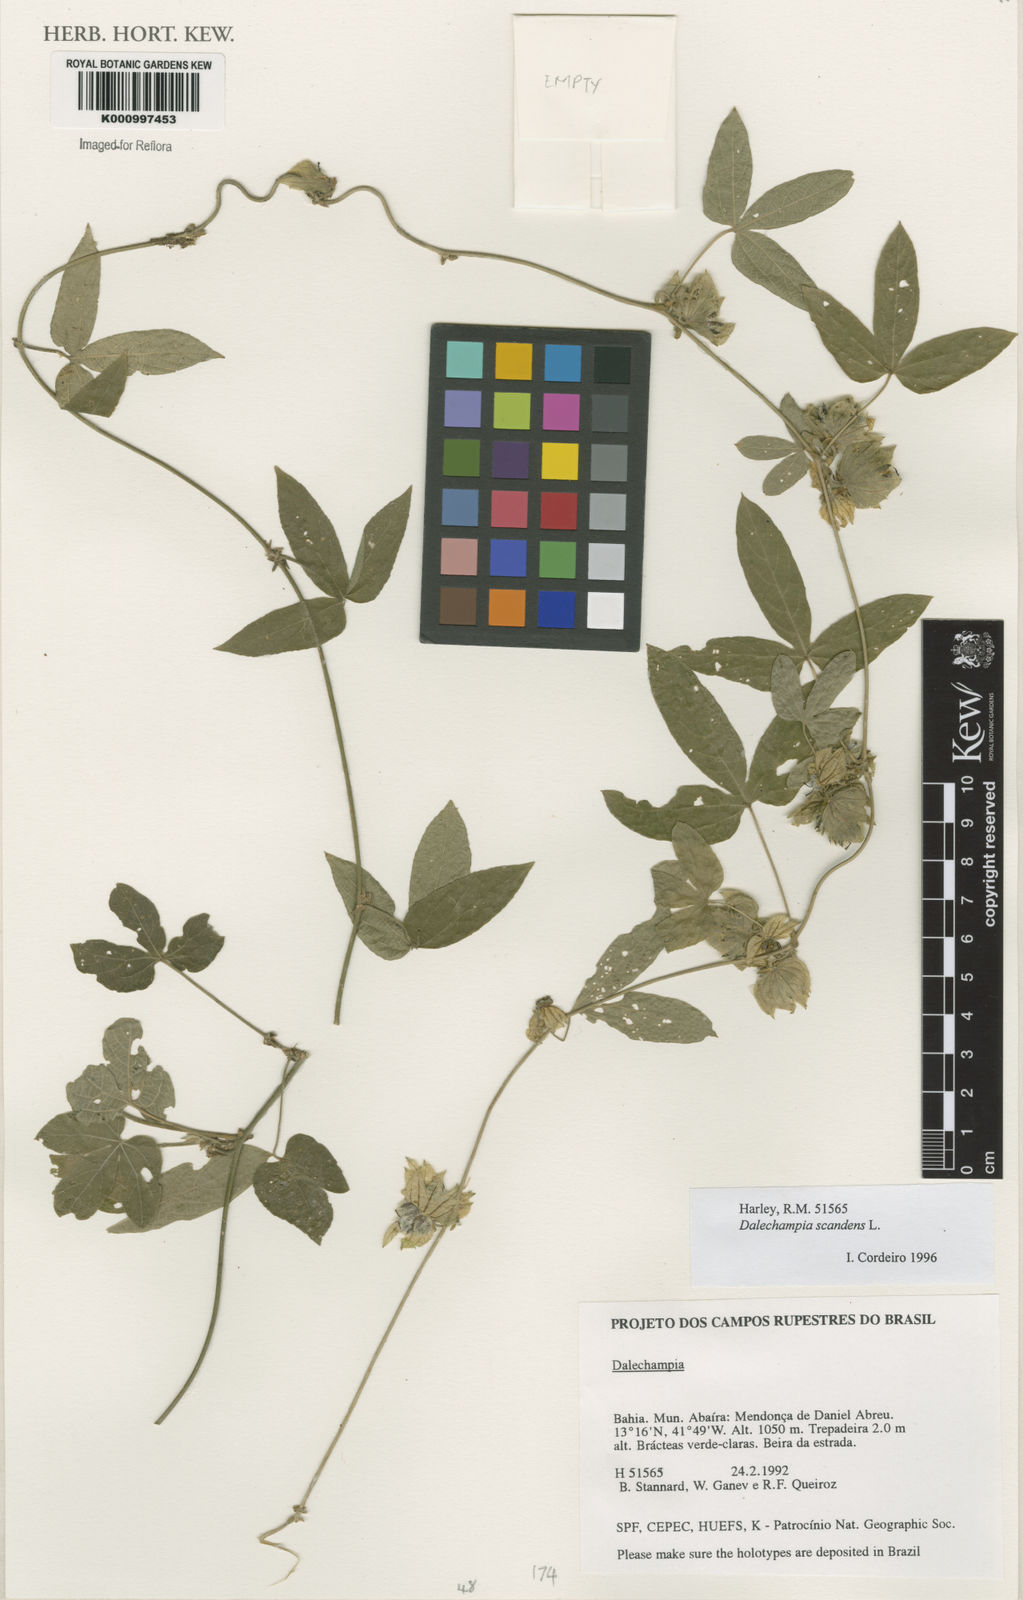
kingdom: Plantae
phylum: Tracheophyta
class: Magnoliopsida
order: Malpighiales
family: Euphorbiaceae
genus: Dalechampia
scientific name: Dalechampia scandens
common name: Spurgecreeper
